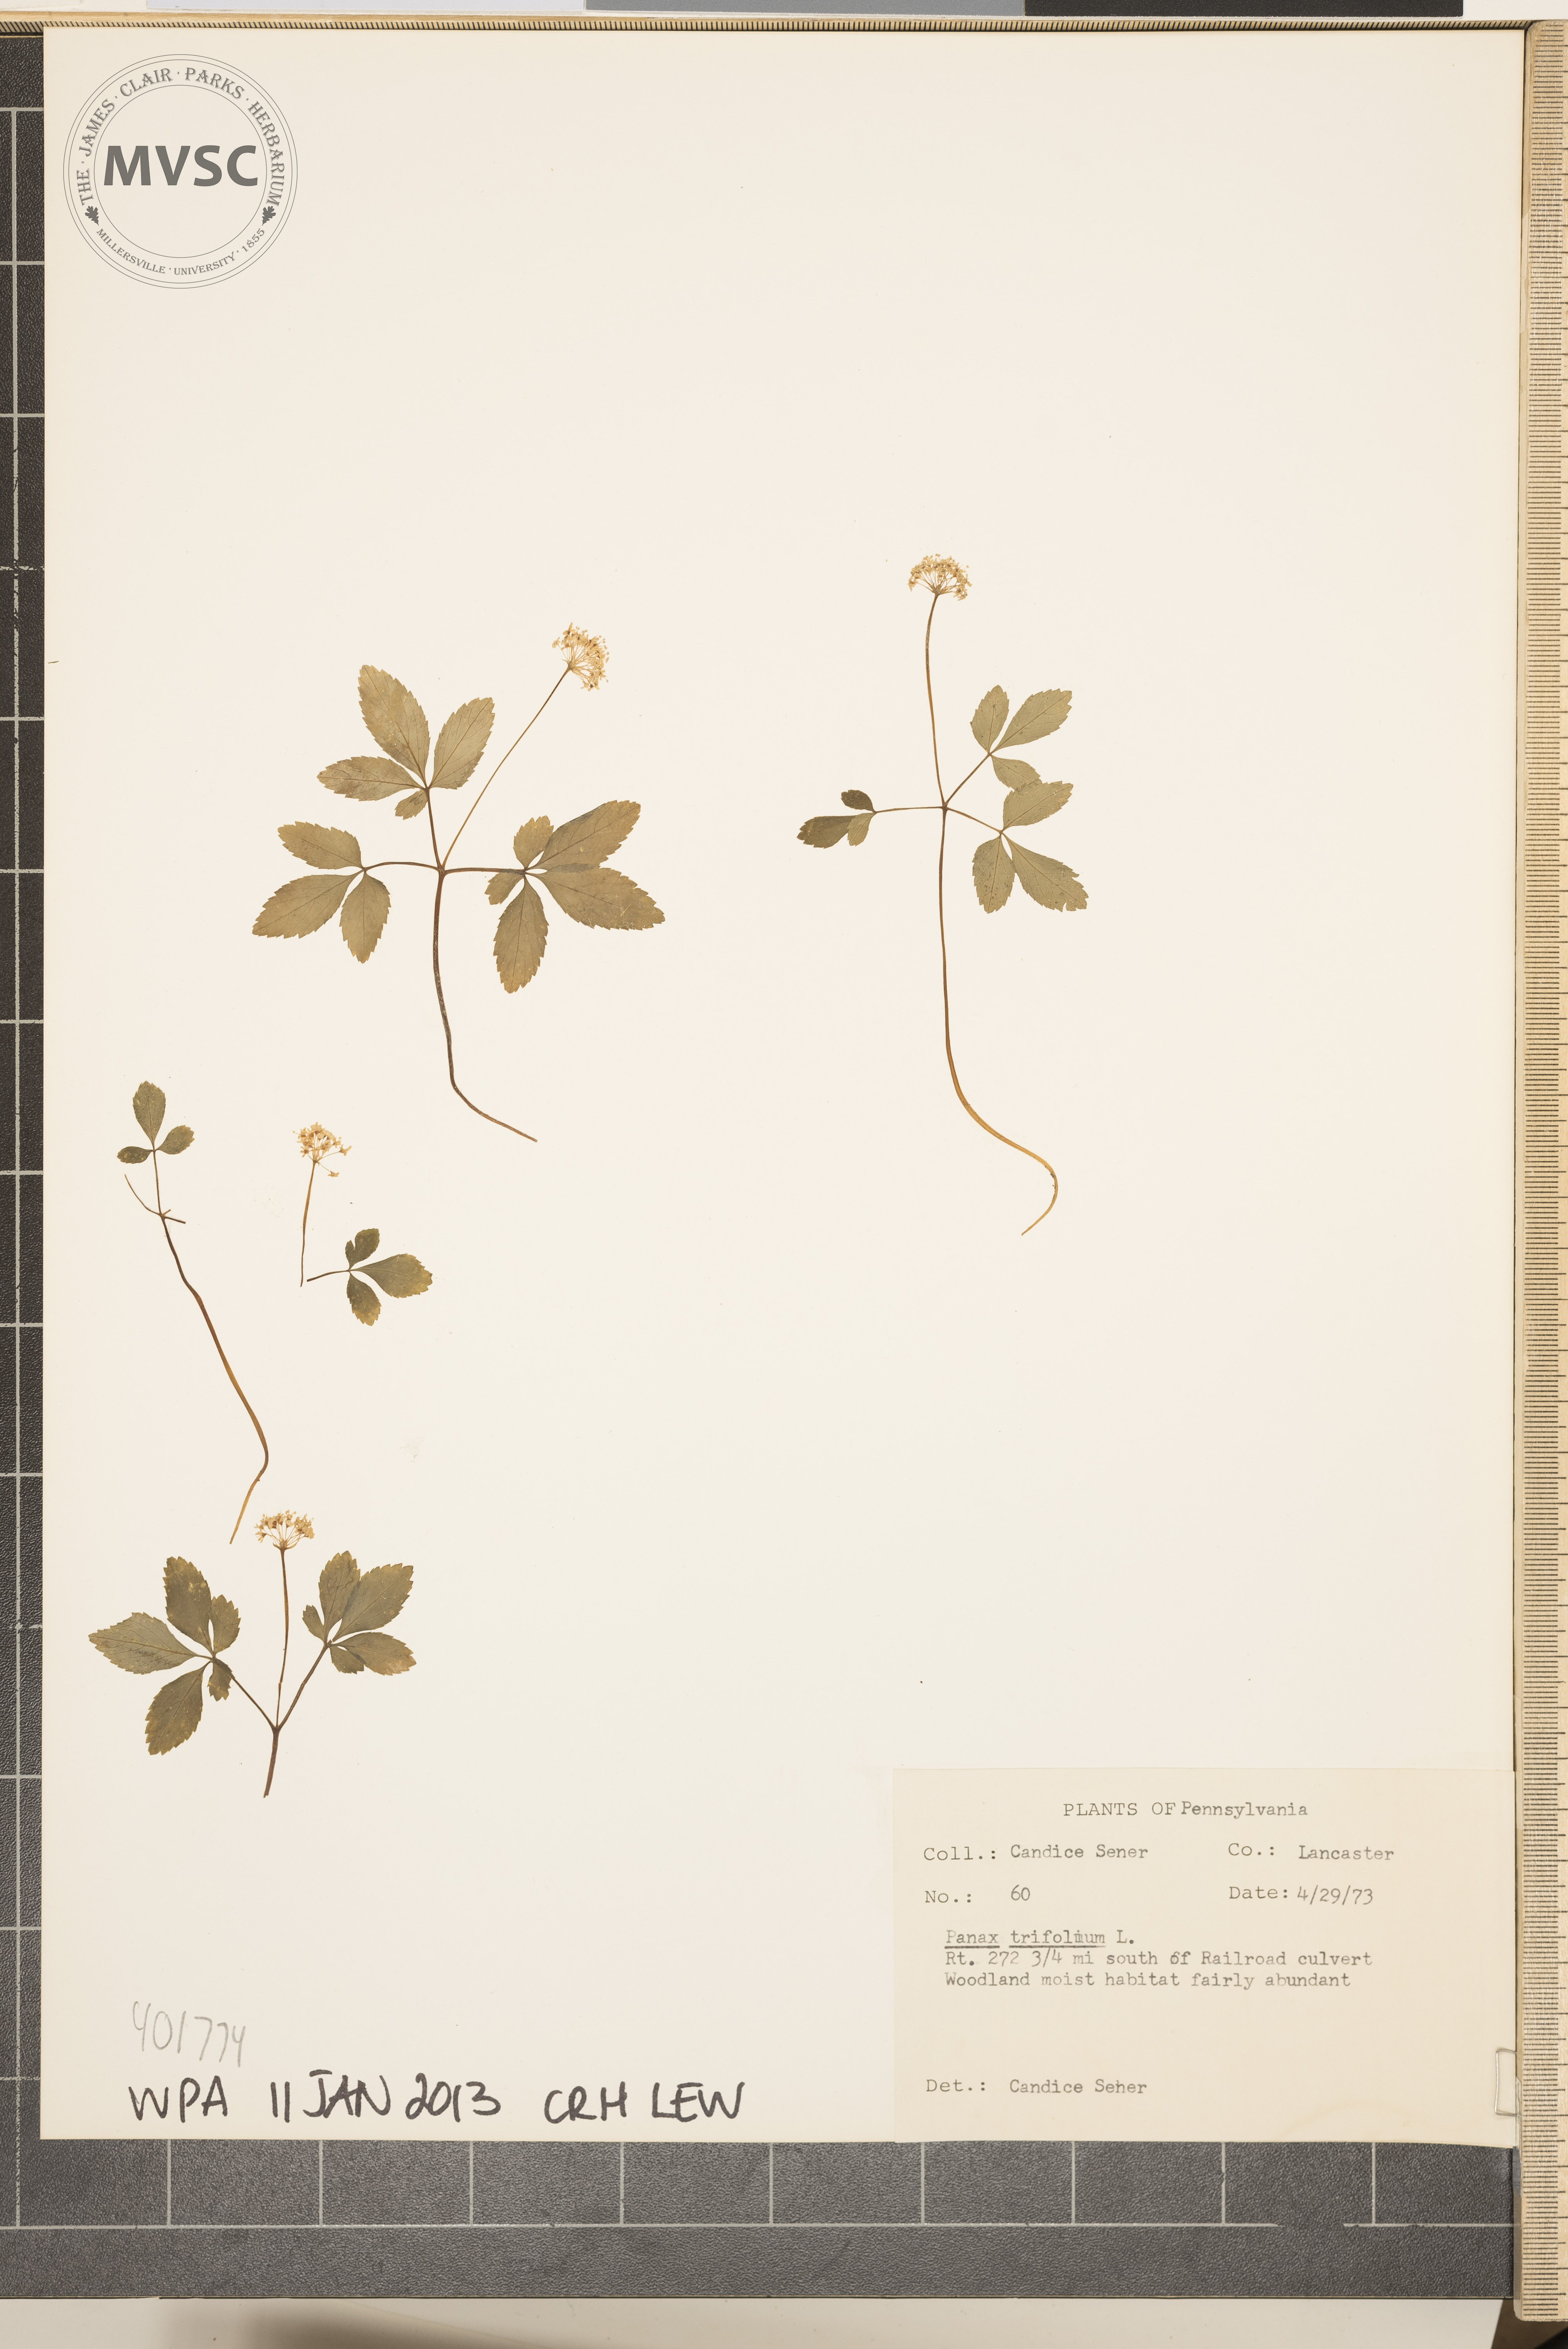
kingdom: Plantae
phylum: Tracheophyta
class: Magnoliopsida
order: Apiales
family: Araliaceae
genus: Panax
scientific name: Panax trifolius
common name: Dwarf ginseng
